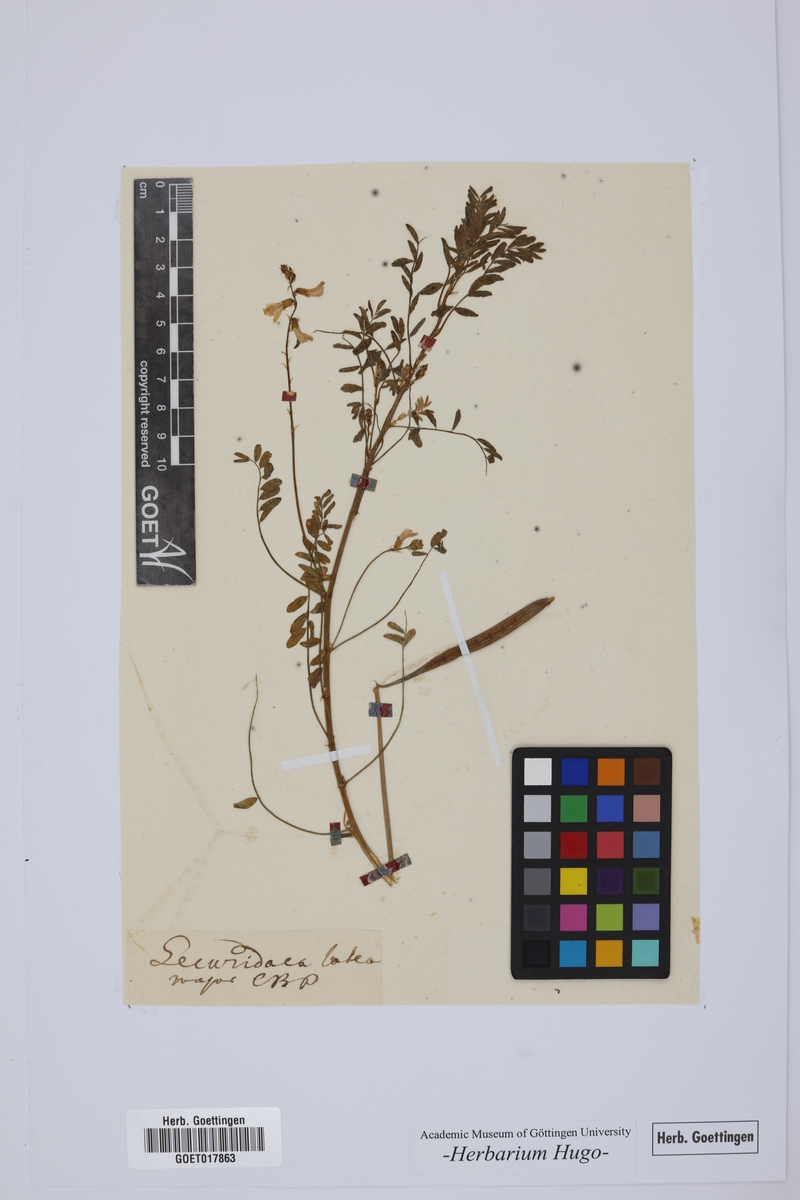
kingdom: Plantae
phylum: Tracheophyta
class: Magnoliopsida
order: Fabales
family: Fabaceae
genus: Coronilla
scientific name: Coronilla securidaca
